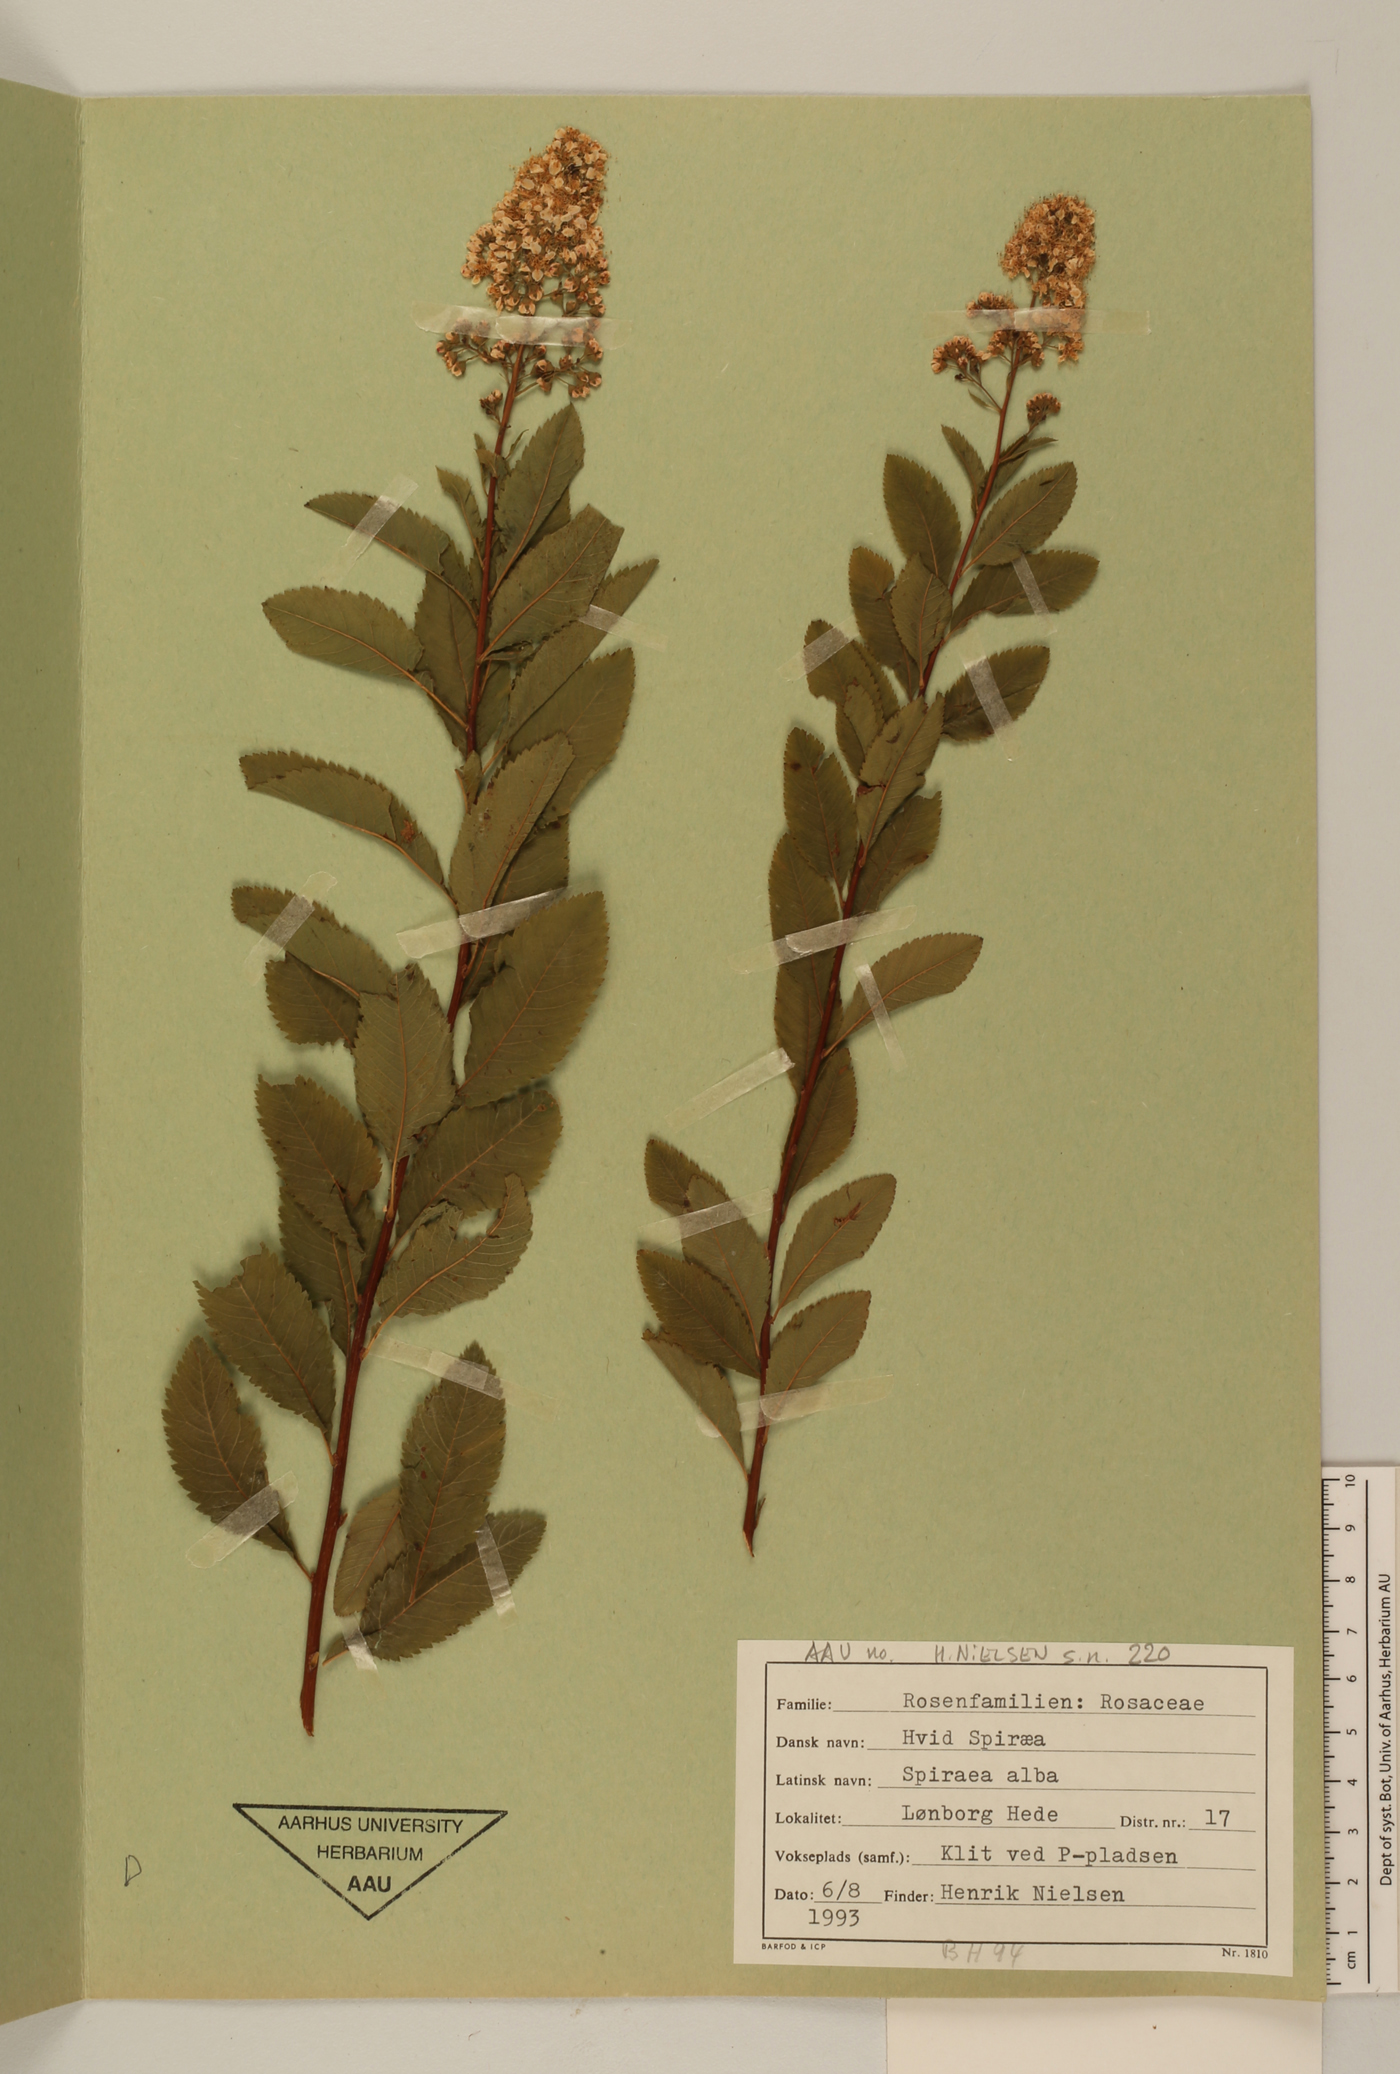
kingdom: Plantae
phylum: Tracheophyta
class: Magnoliopsida
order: Rosales
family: Rosaceae
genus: Spiraea
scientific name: Spiraea alba
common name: Pale bridewort
